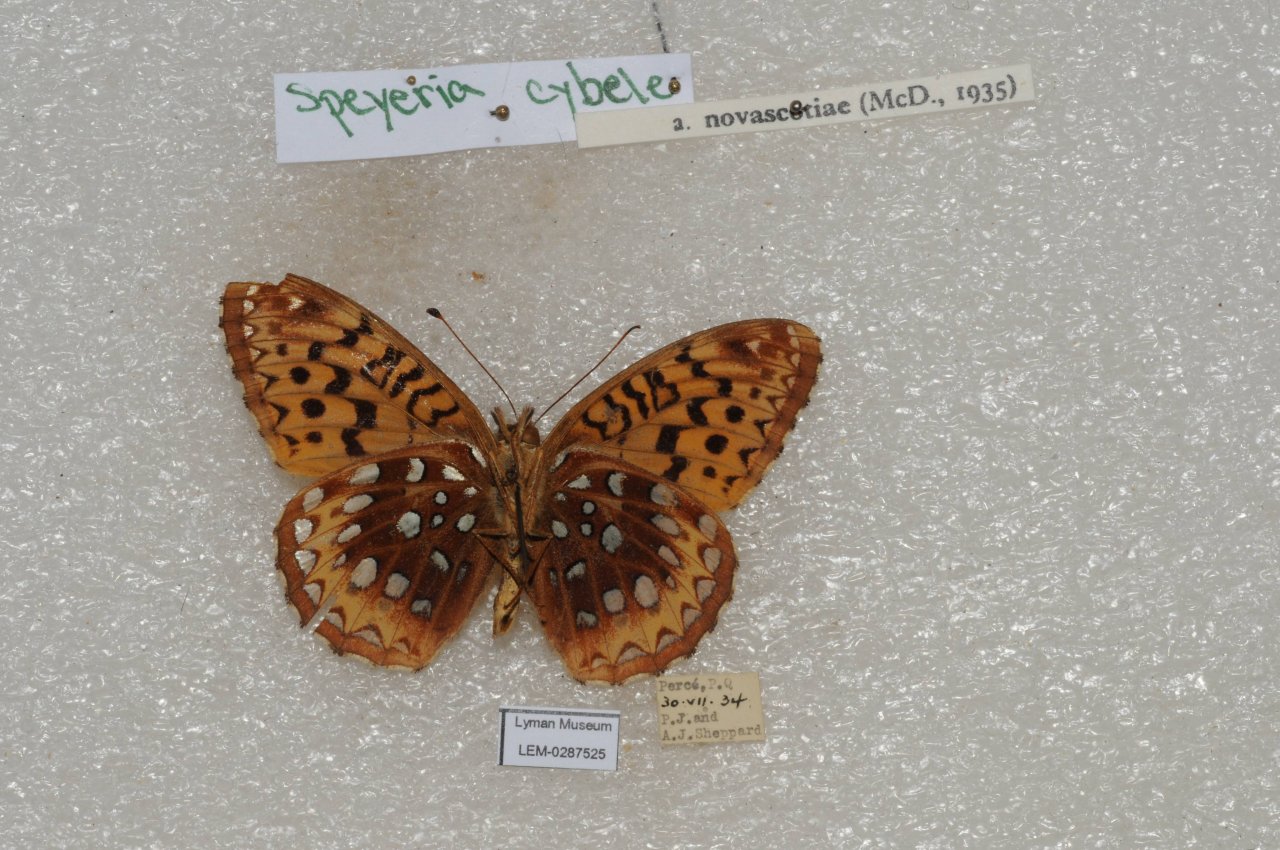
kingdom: Animalia
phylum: Arthropoda
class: Insecta
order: Lepidoptera
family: Nymphalidae
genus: Speyeria
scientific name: Speyeria cybele
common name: Great Spangled Fritillary
